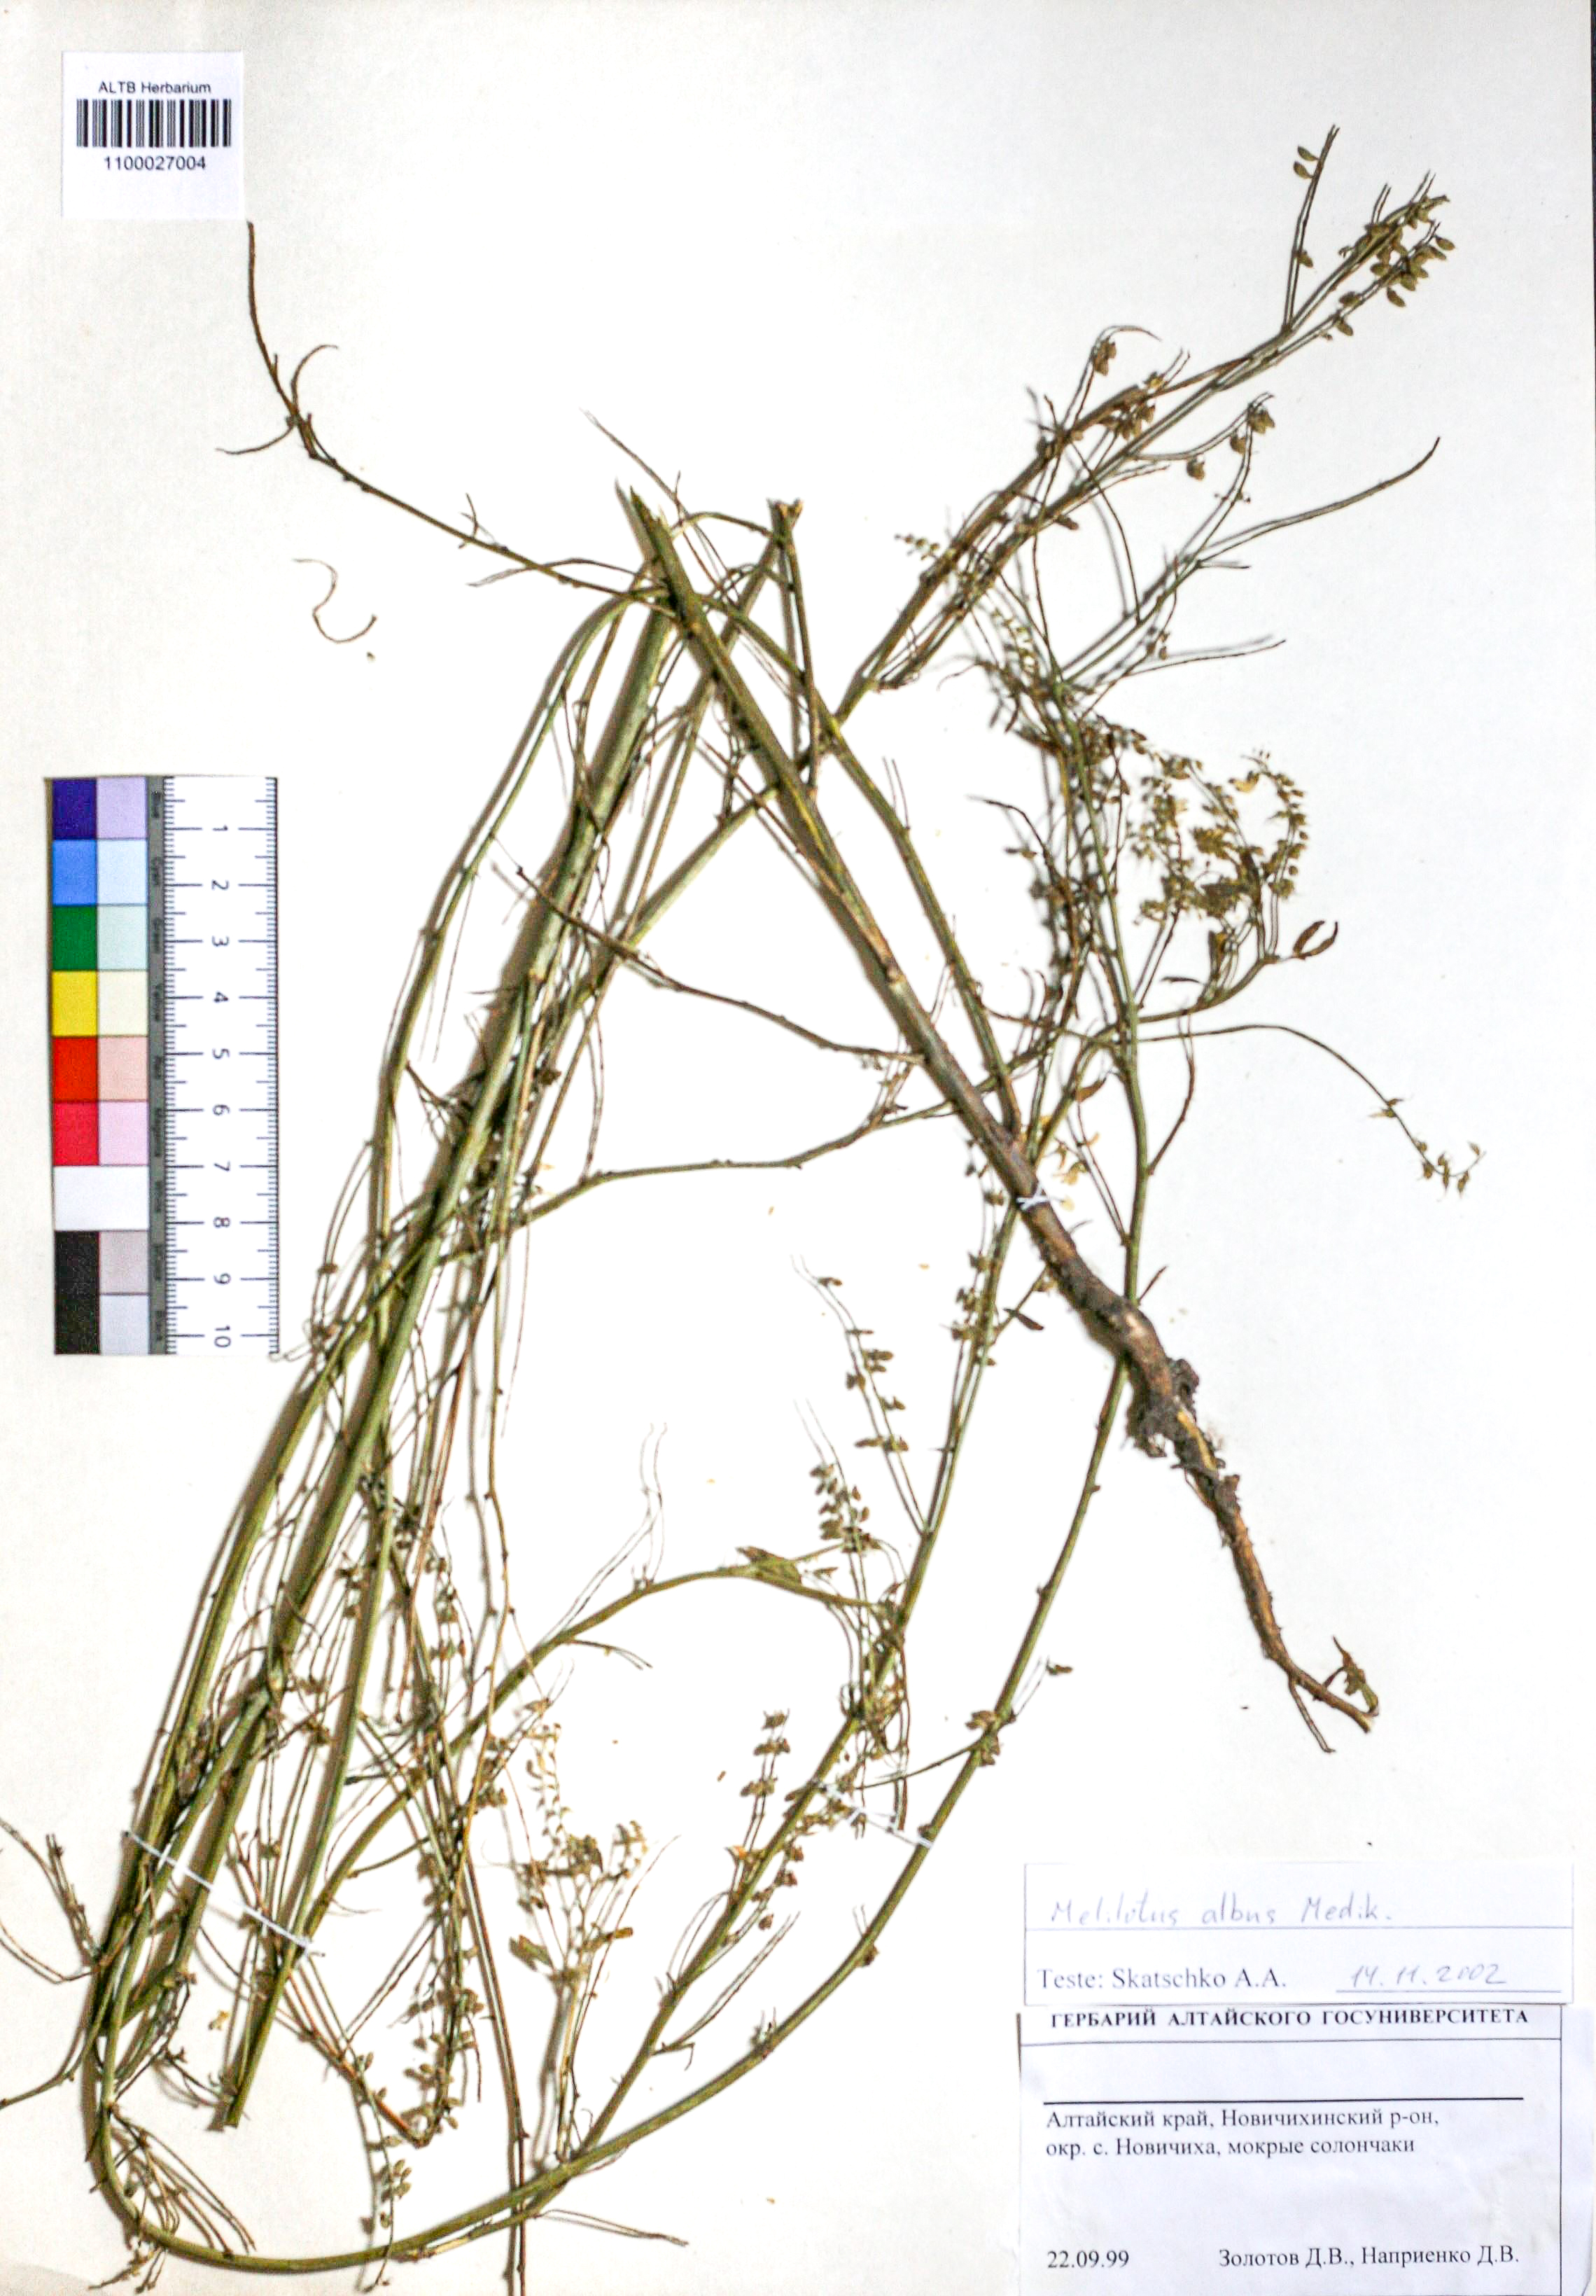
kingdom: Plantae
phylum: Tracheophyta
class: Magnoliopsida
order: Fabales
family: Fabaceae
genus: Melilotus
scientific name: Melilotus albus
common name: White melilot
